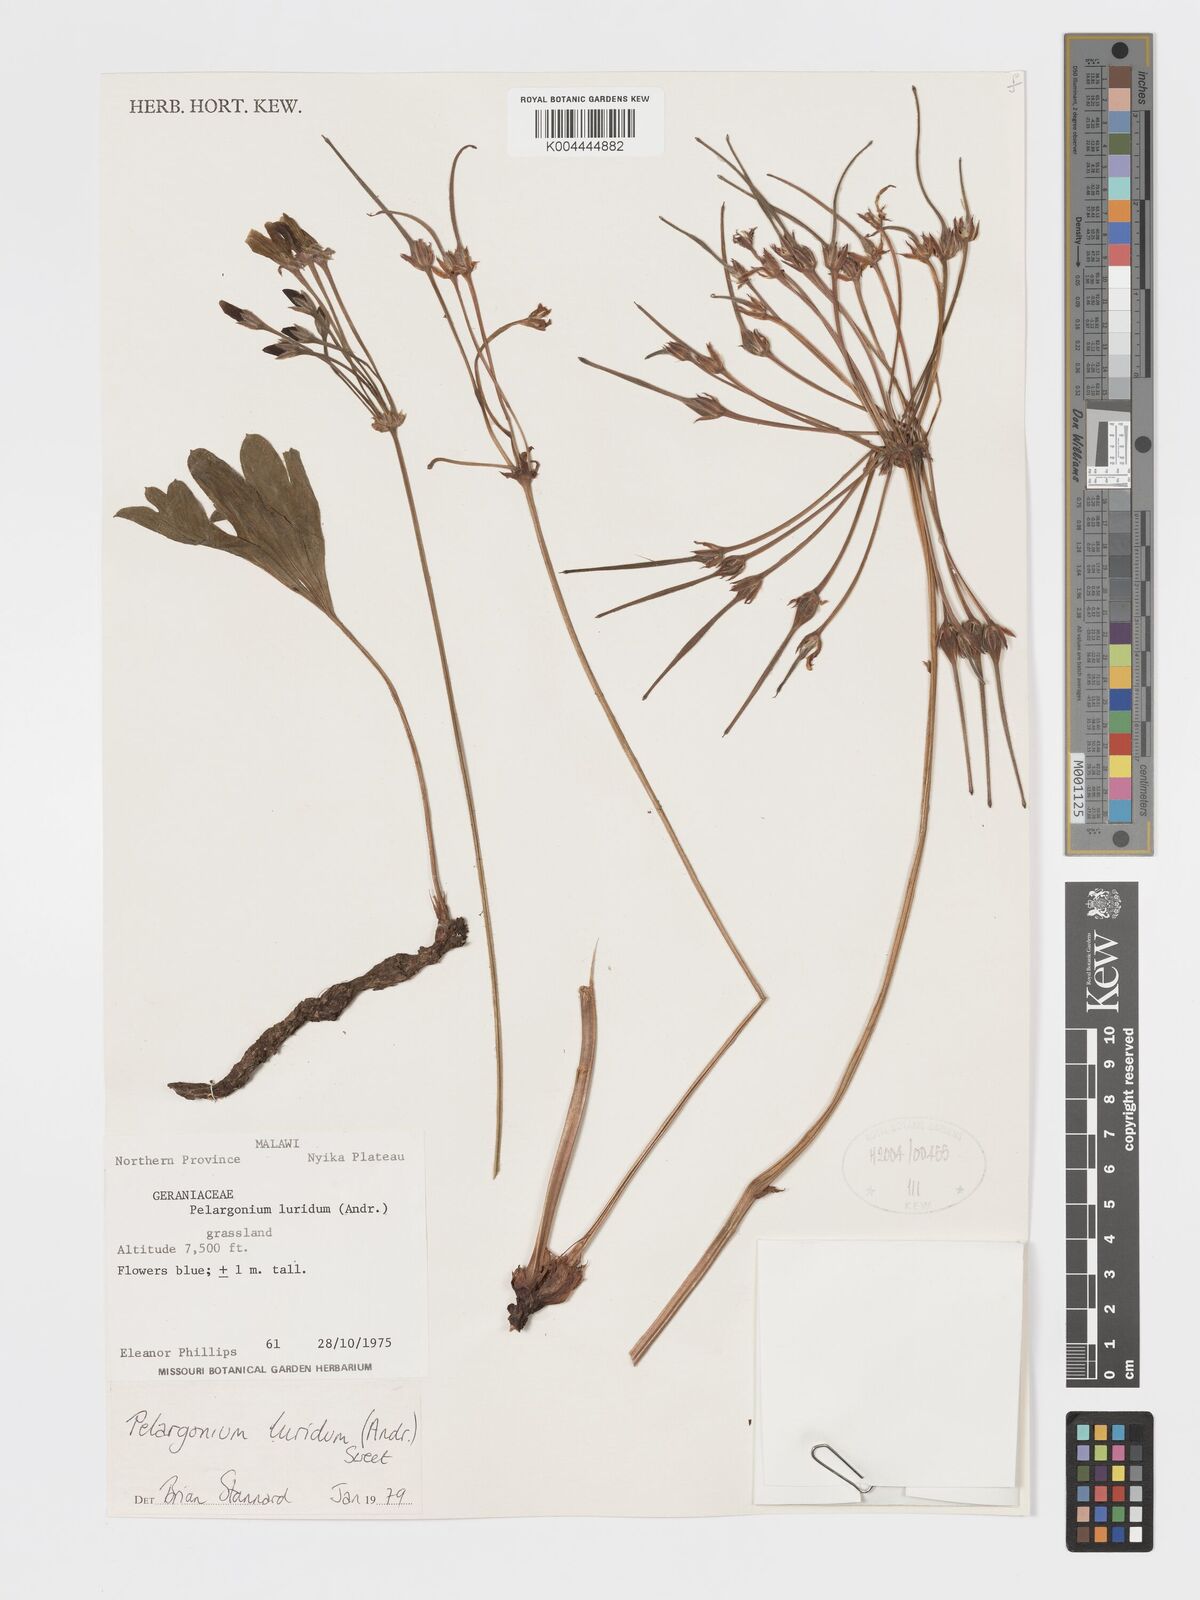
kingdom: Plantae
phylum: Tracheophyta
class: Magnoliopsida
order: Geraniales
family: Geraniaceae
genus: Pelargonium
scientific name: Pelargonium luridum
